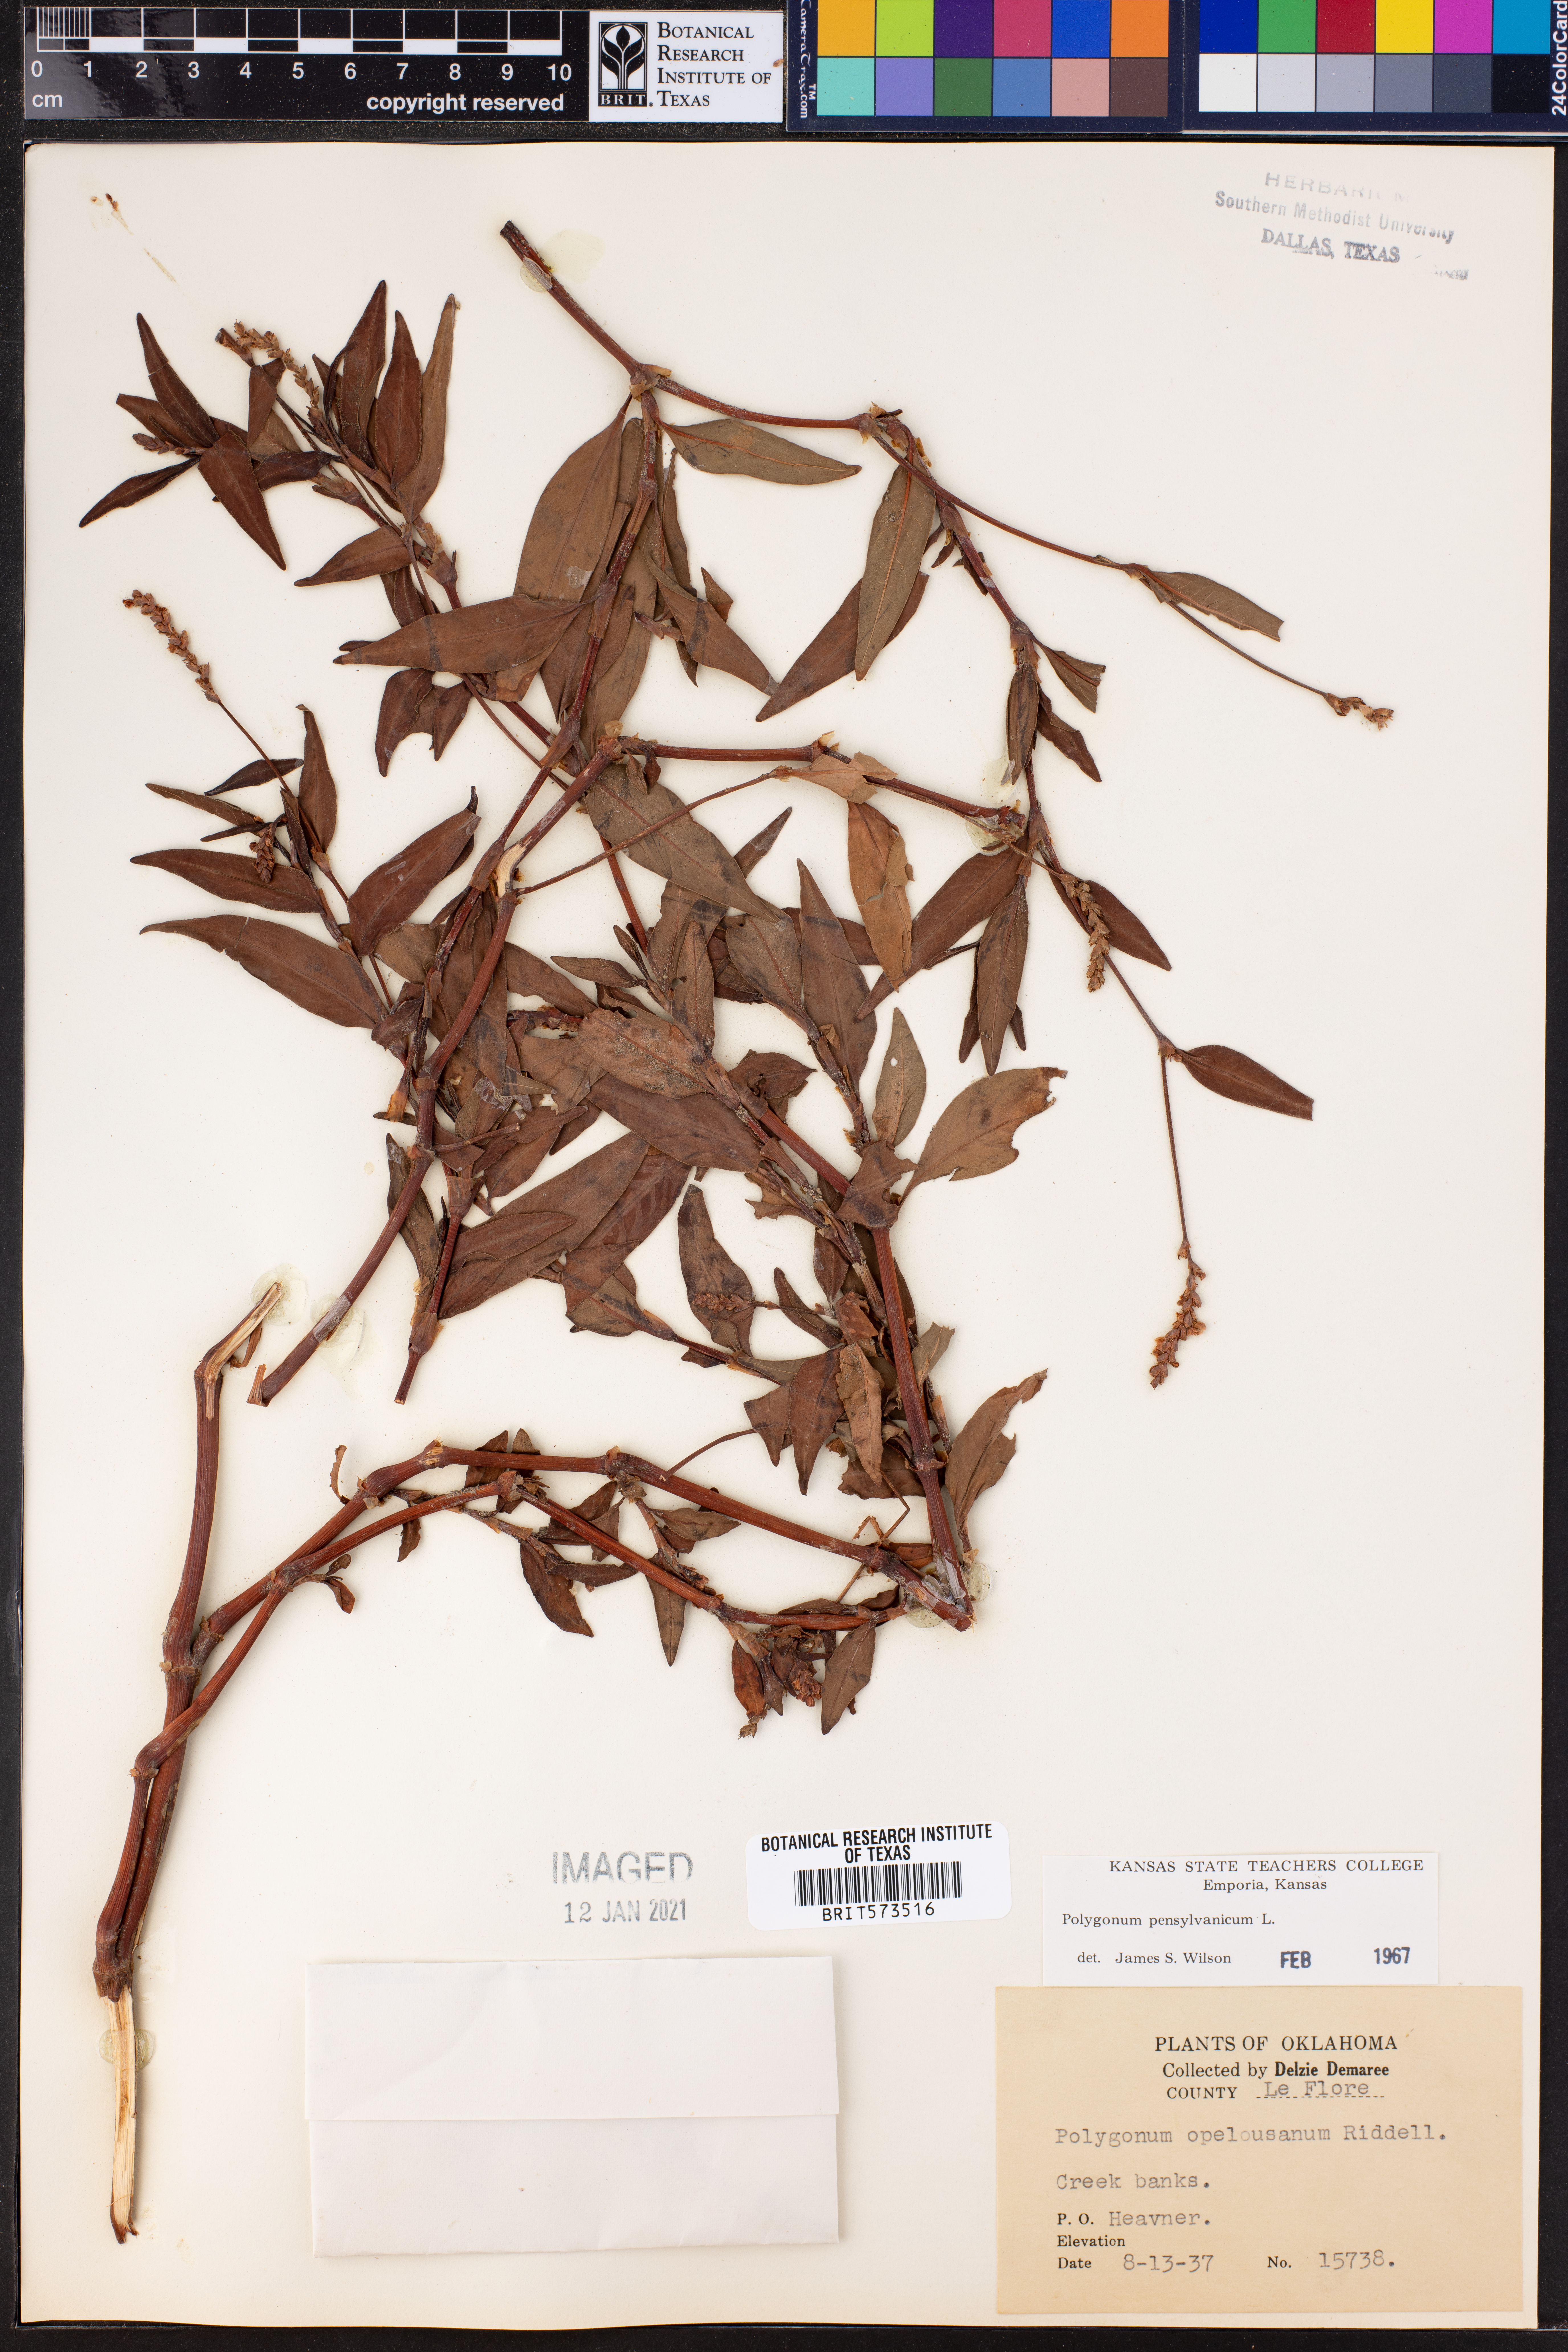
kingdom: Plantae
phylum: Tracheophyta
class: Magnoliopsida
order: Caryophyllales
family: Polygonaceae
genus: Persicaria
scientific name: Persicaria pensylvanica
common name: Pinkweed
